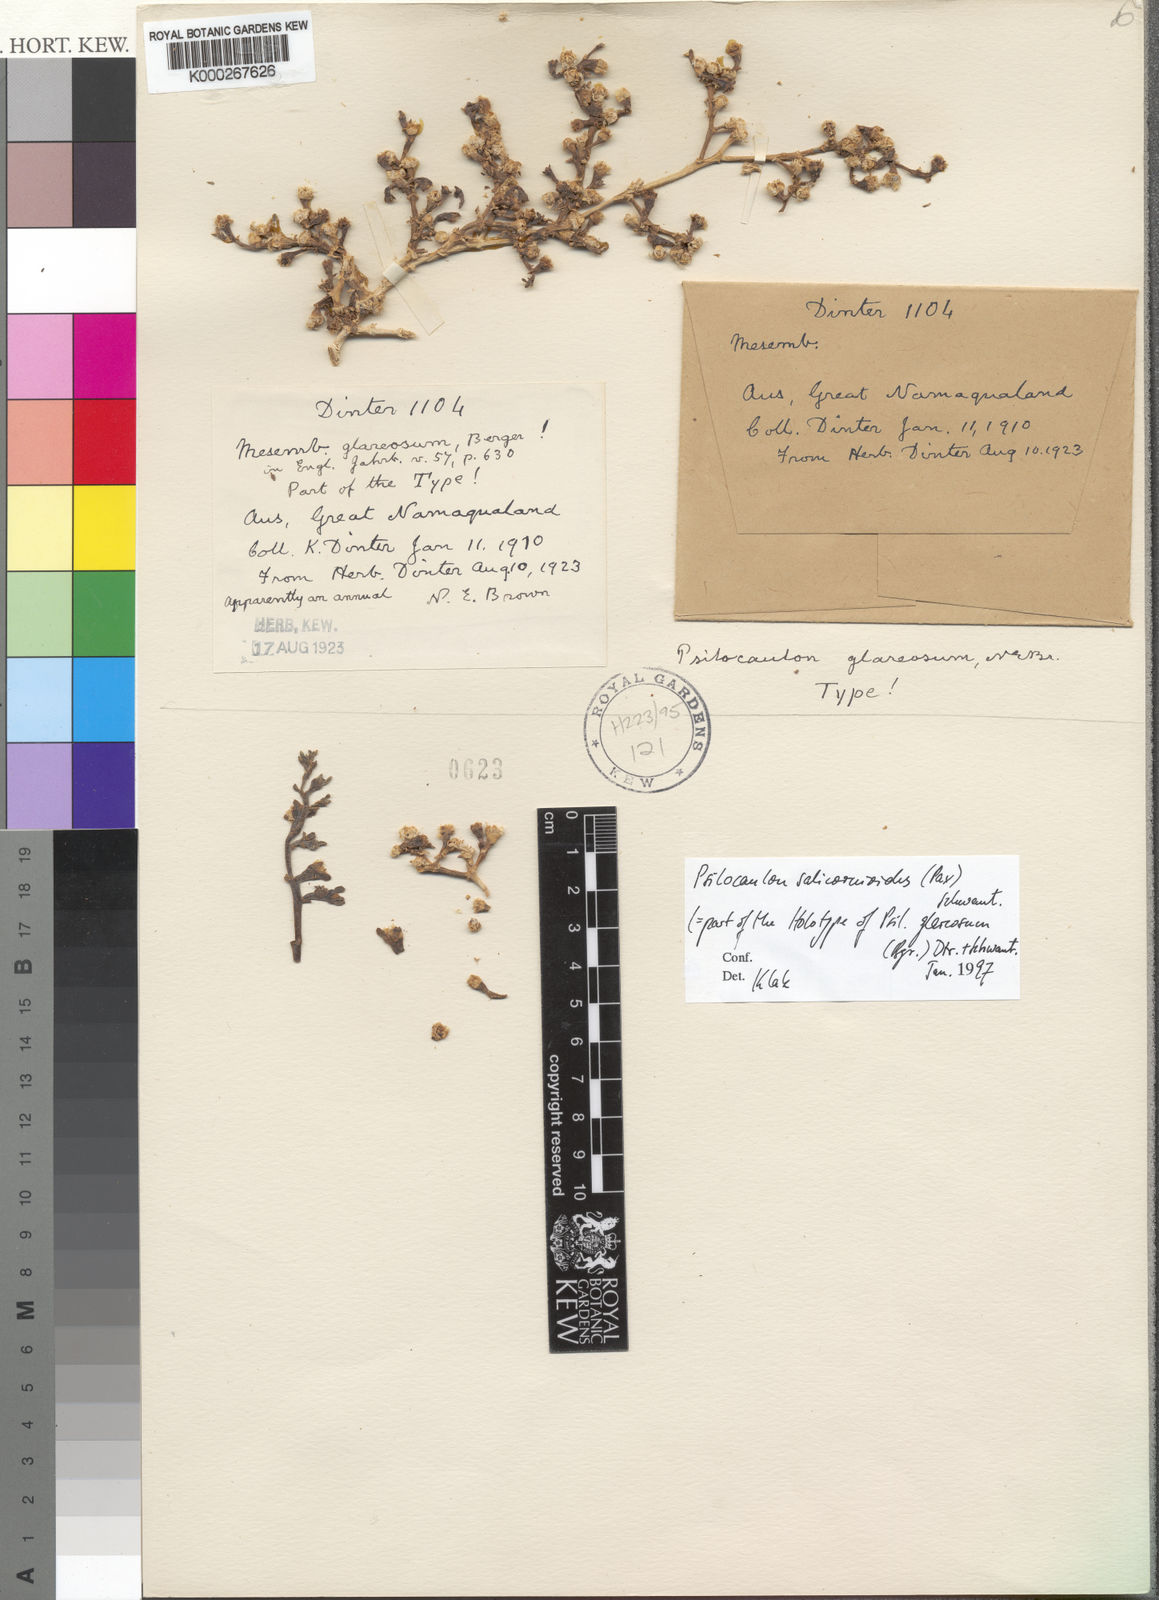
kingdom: Plantae
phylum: Tracheophyta
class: Magnoliopsida
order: Caryophyllales
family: Aizoaceae
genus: Mesembryanthemum
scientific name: Mesembryanthemum
